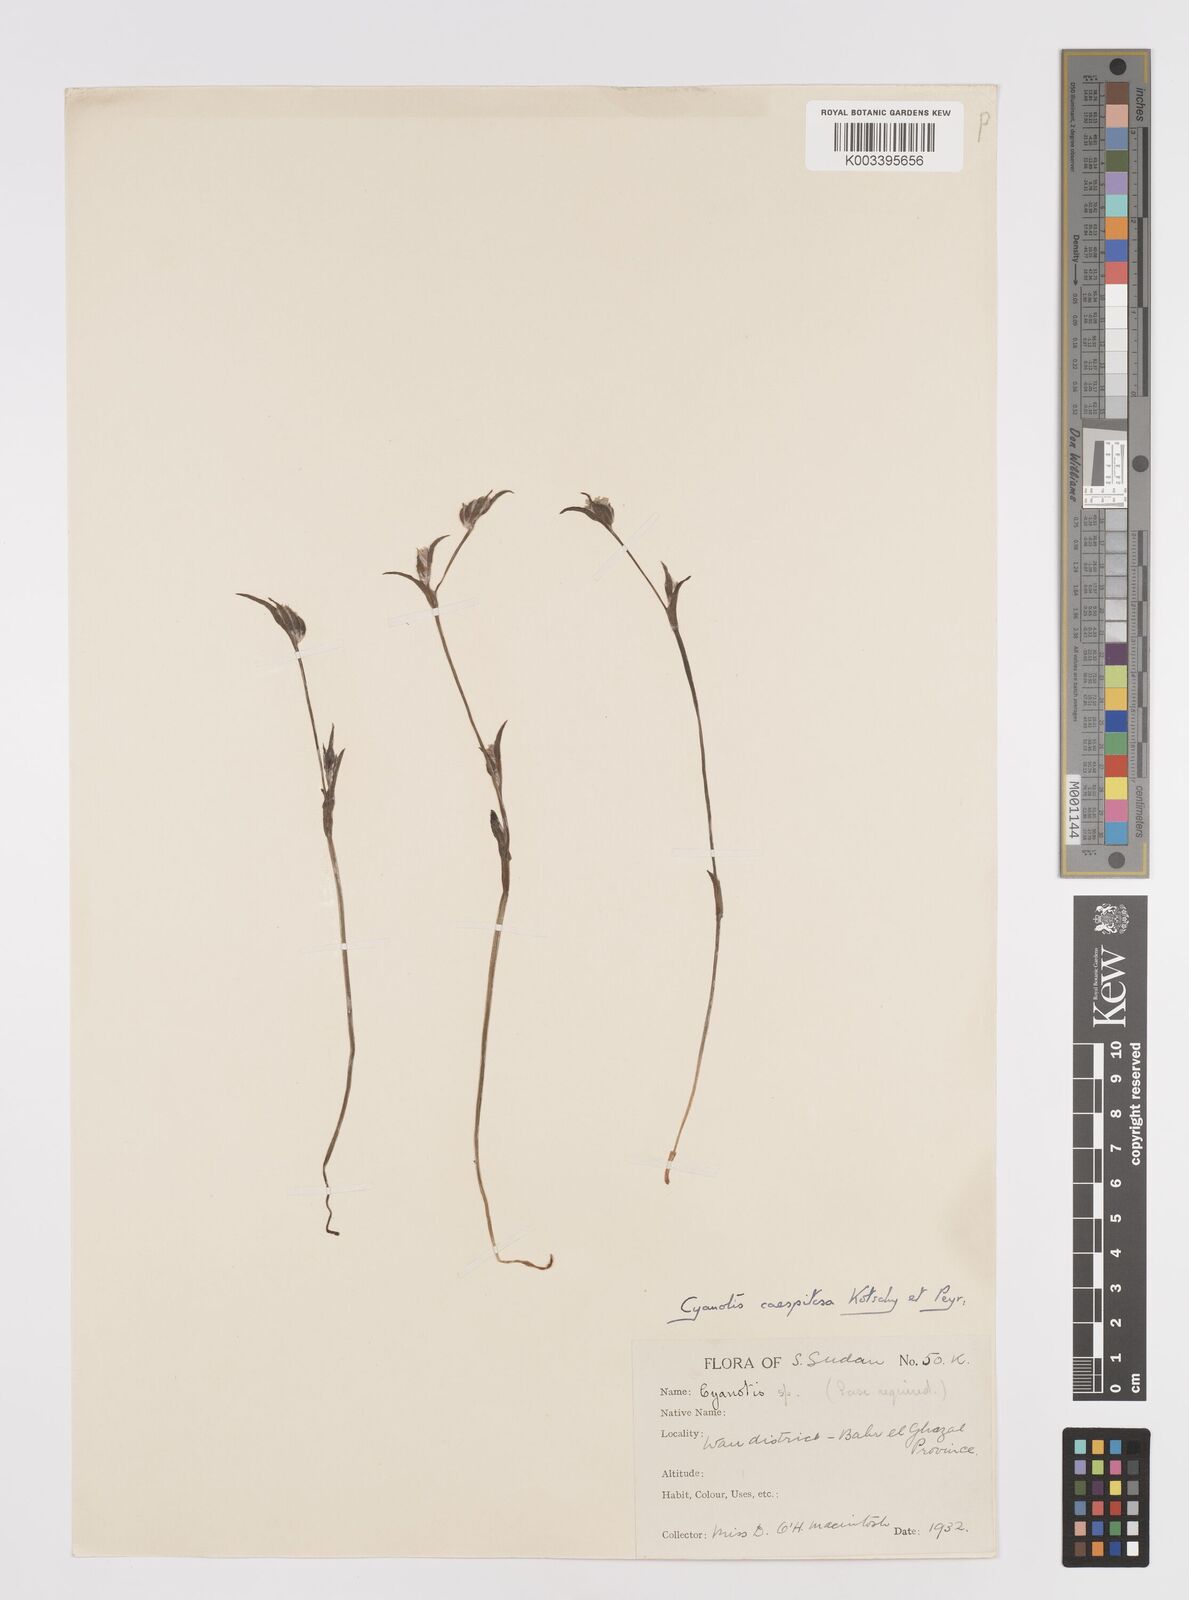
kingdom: Plantae
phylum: Tracheophyta
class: Liliopsida
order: Commelinales
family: Commelinaceae
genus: Cyanotis
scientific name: Cyanotis caespitosa
